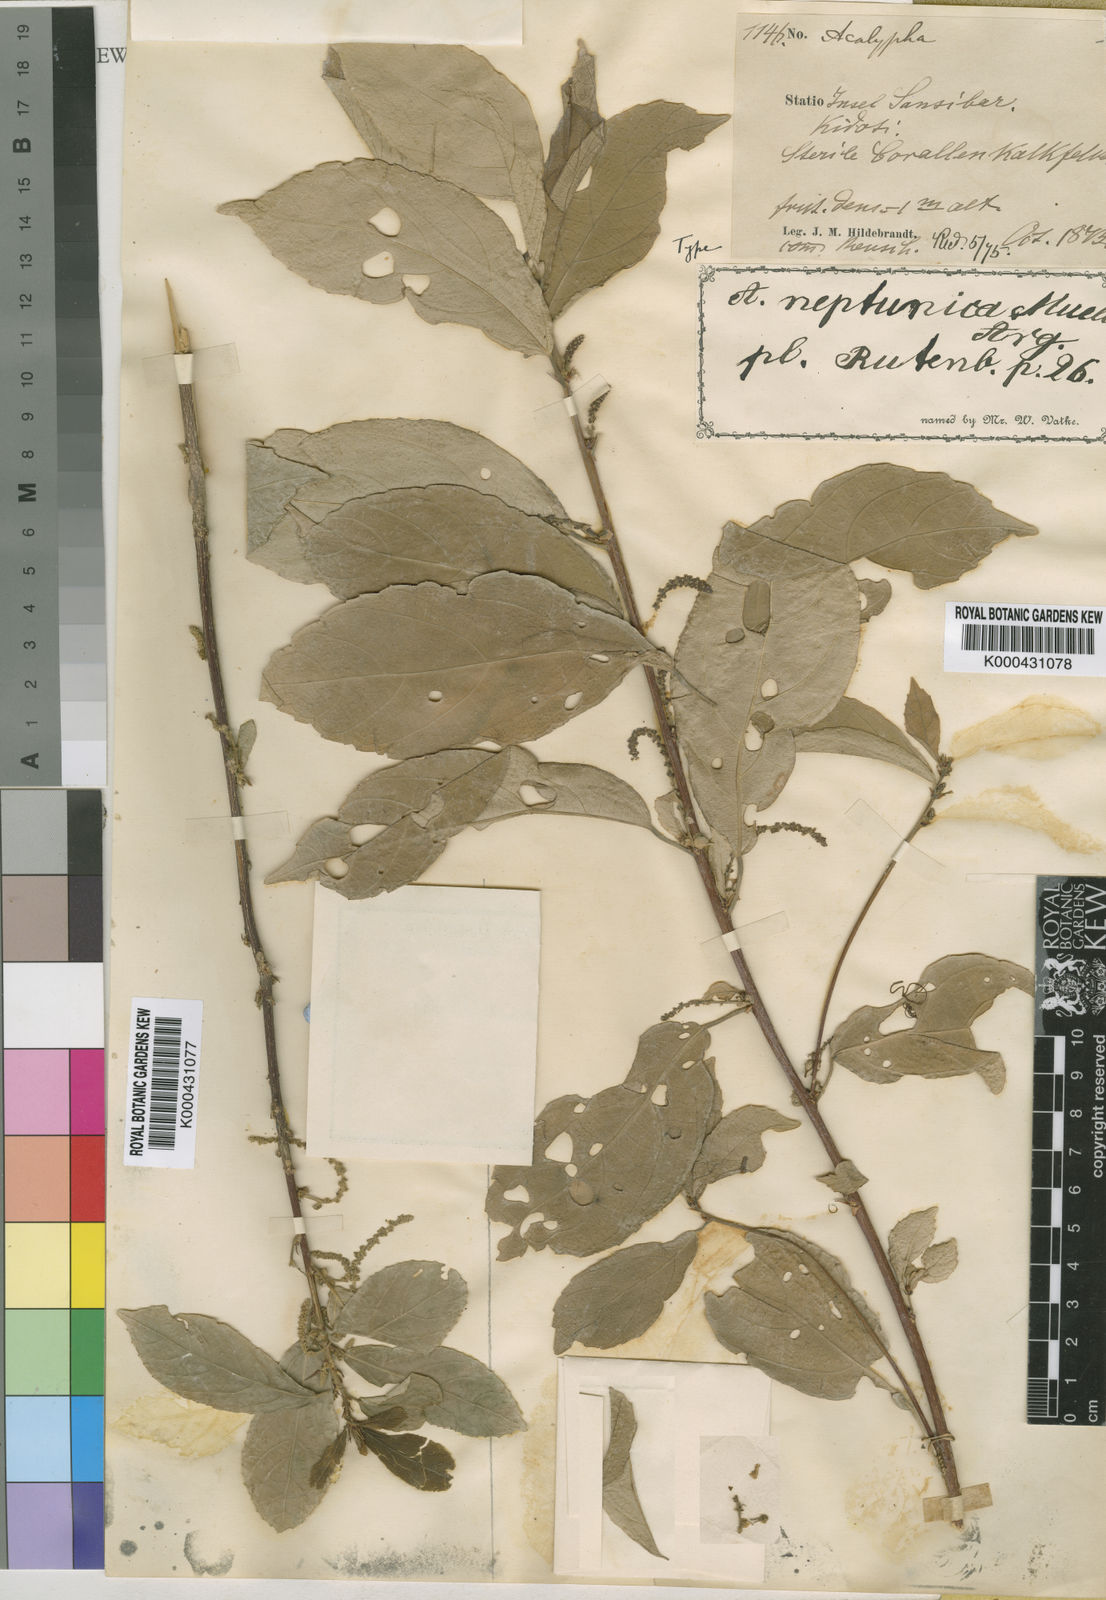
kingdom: Plantae
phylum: Tracheophyta
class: Magnoliopsida
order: Malpighiales
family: Euphorbiaceae
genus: Acalypha
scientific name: Acalypha neptunica
